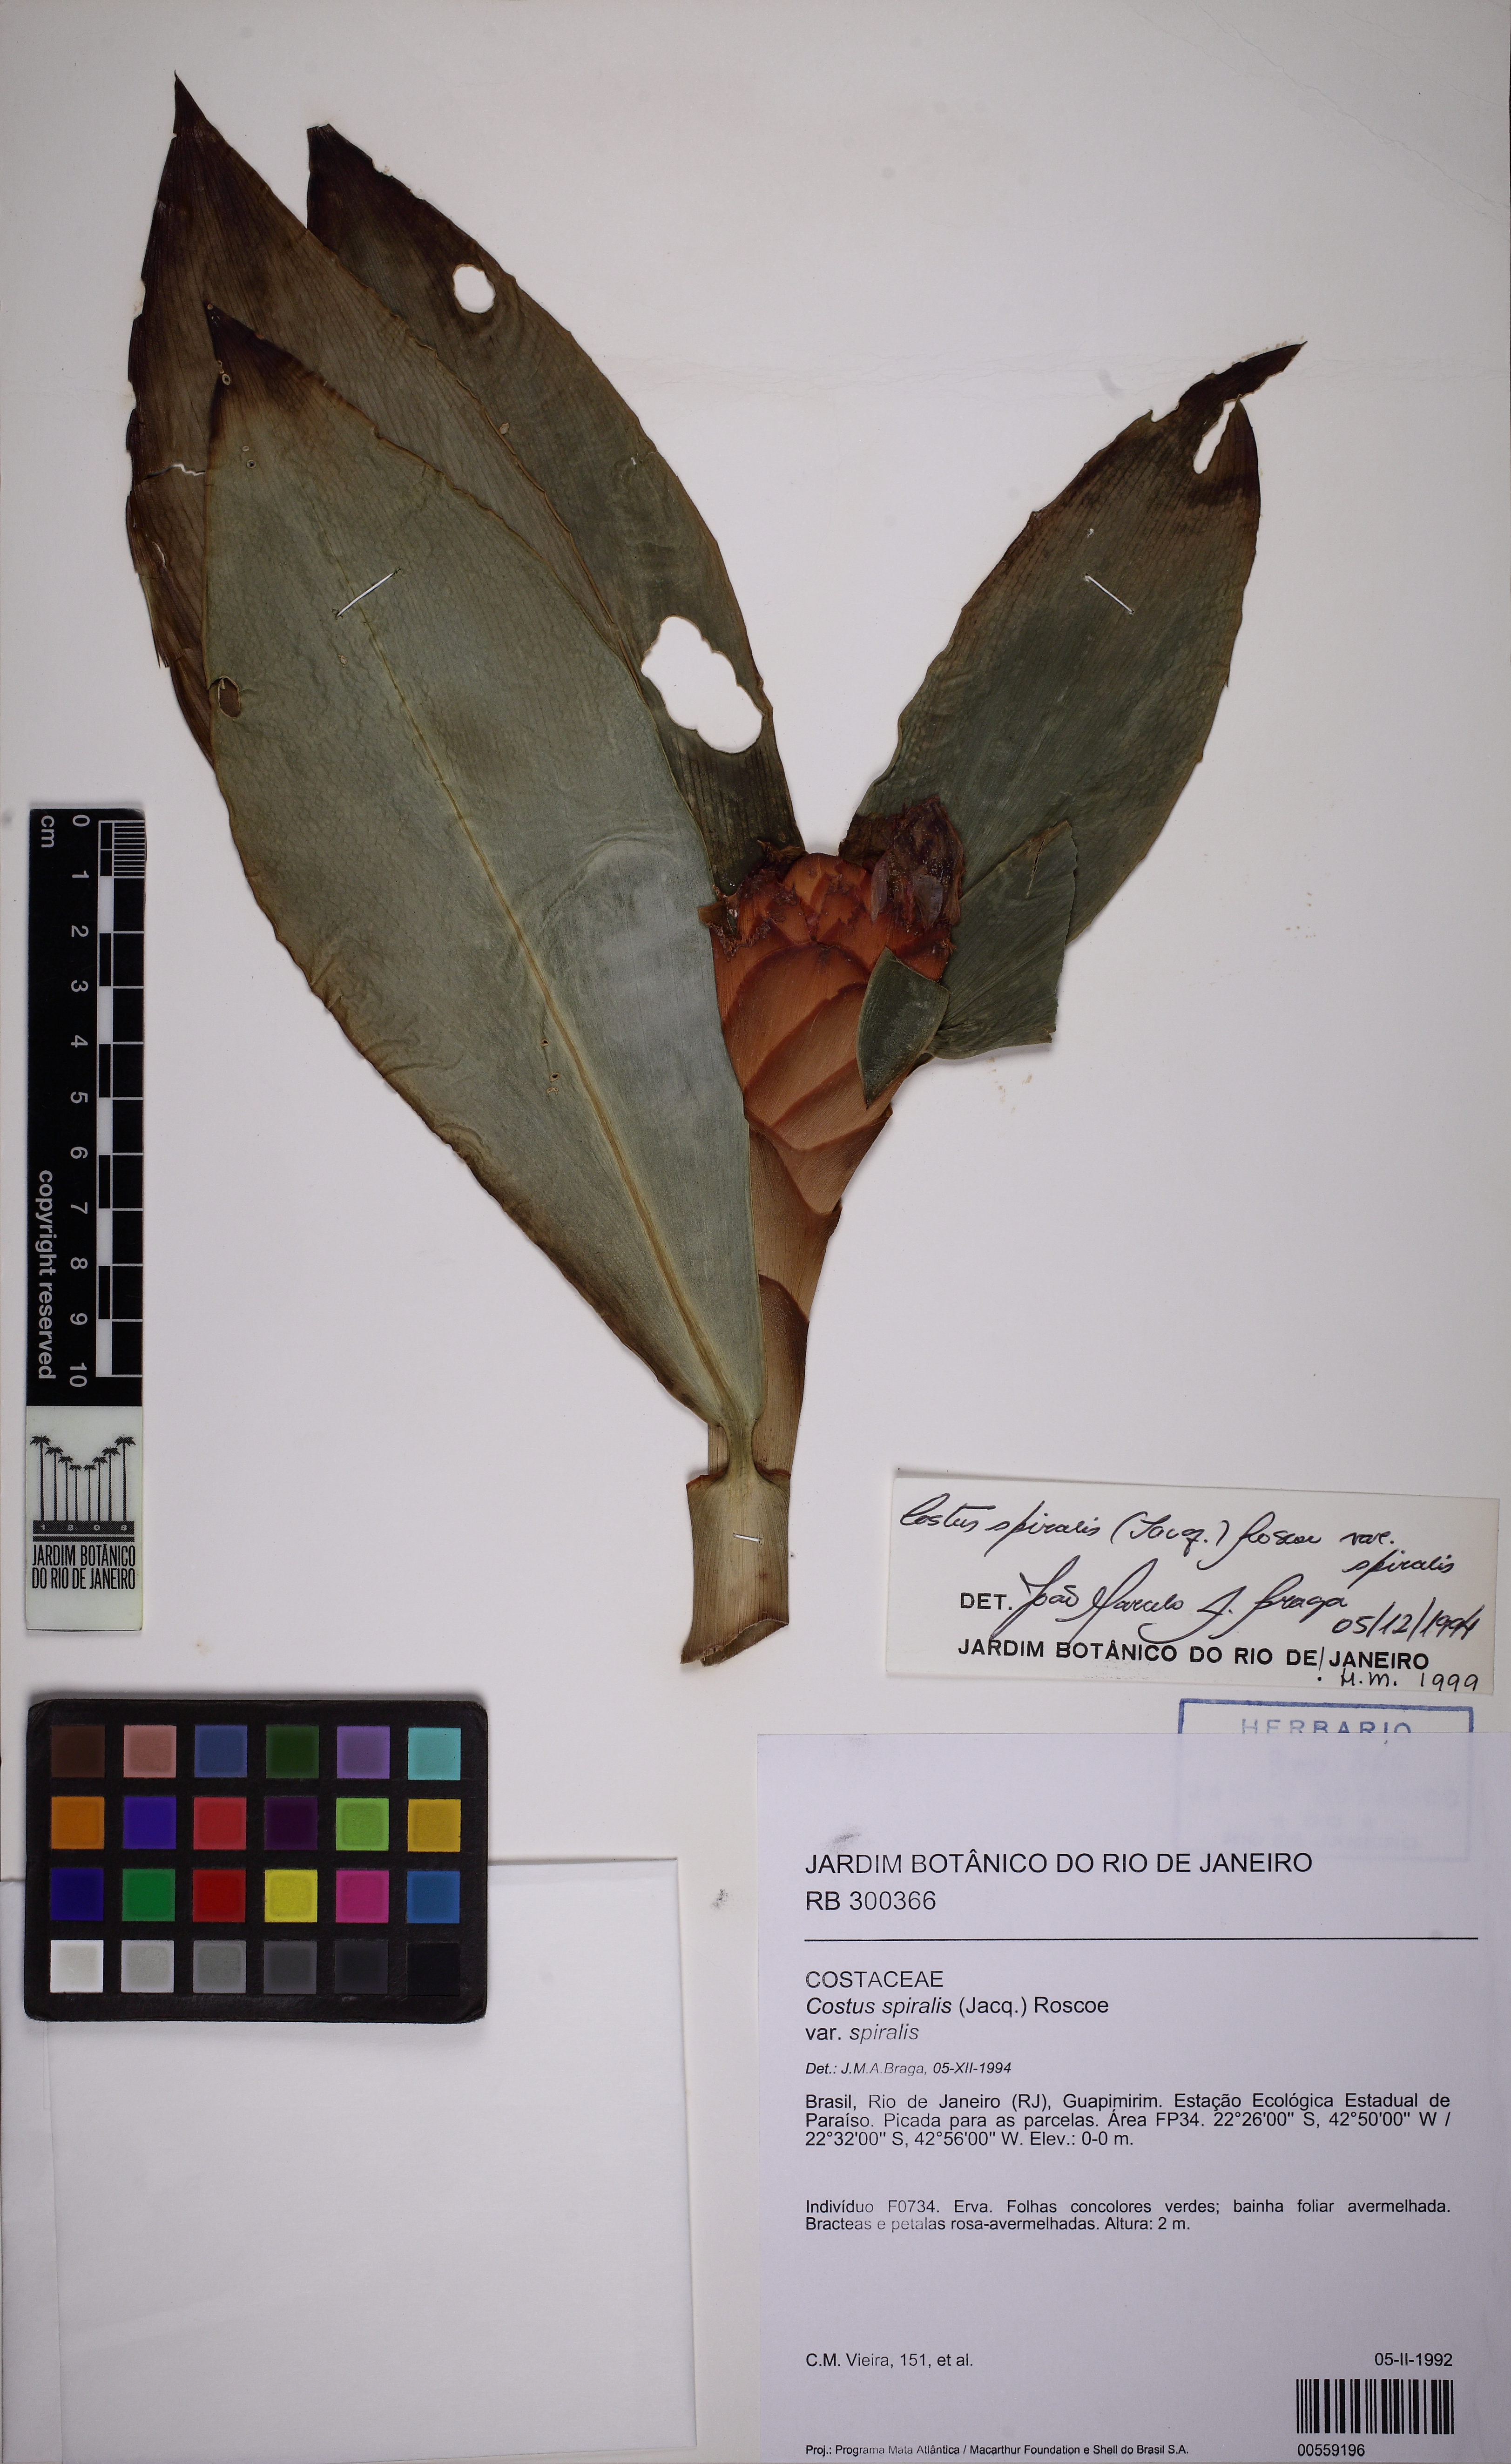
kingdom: Plantae
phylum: Tracheophyta
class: Liliopsida
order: Zingiberales
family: Costaceae
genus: Costus
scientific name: Costus spiralis
